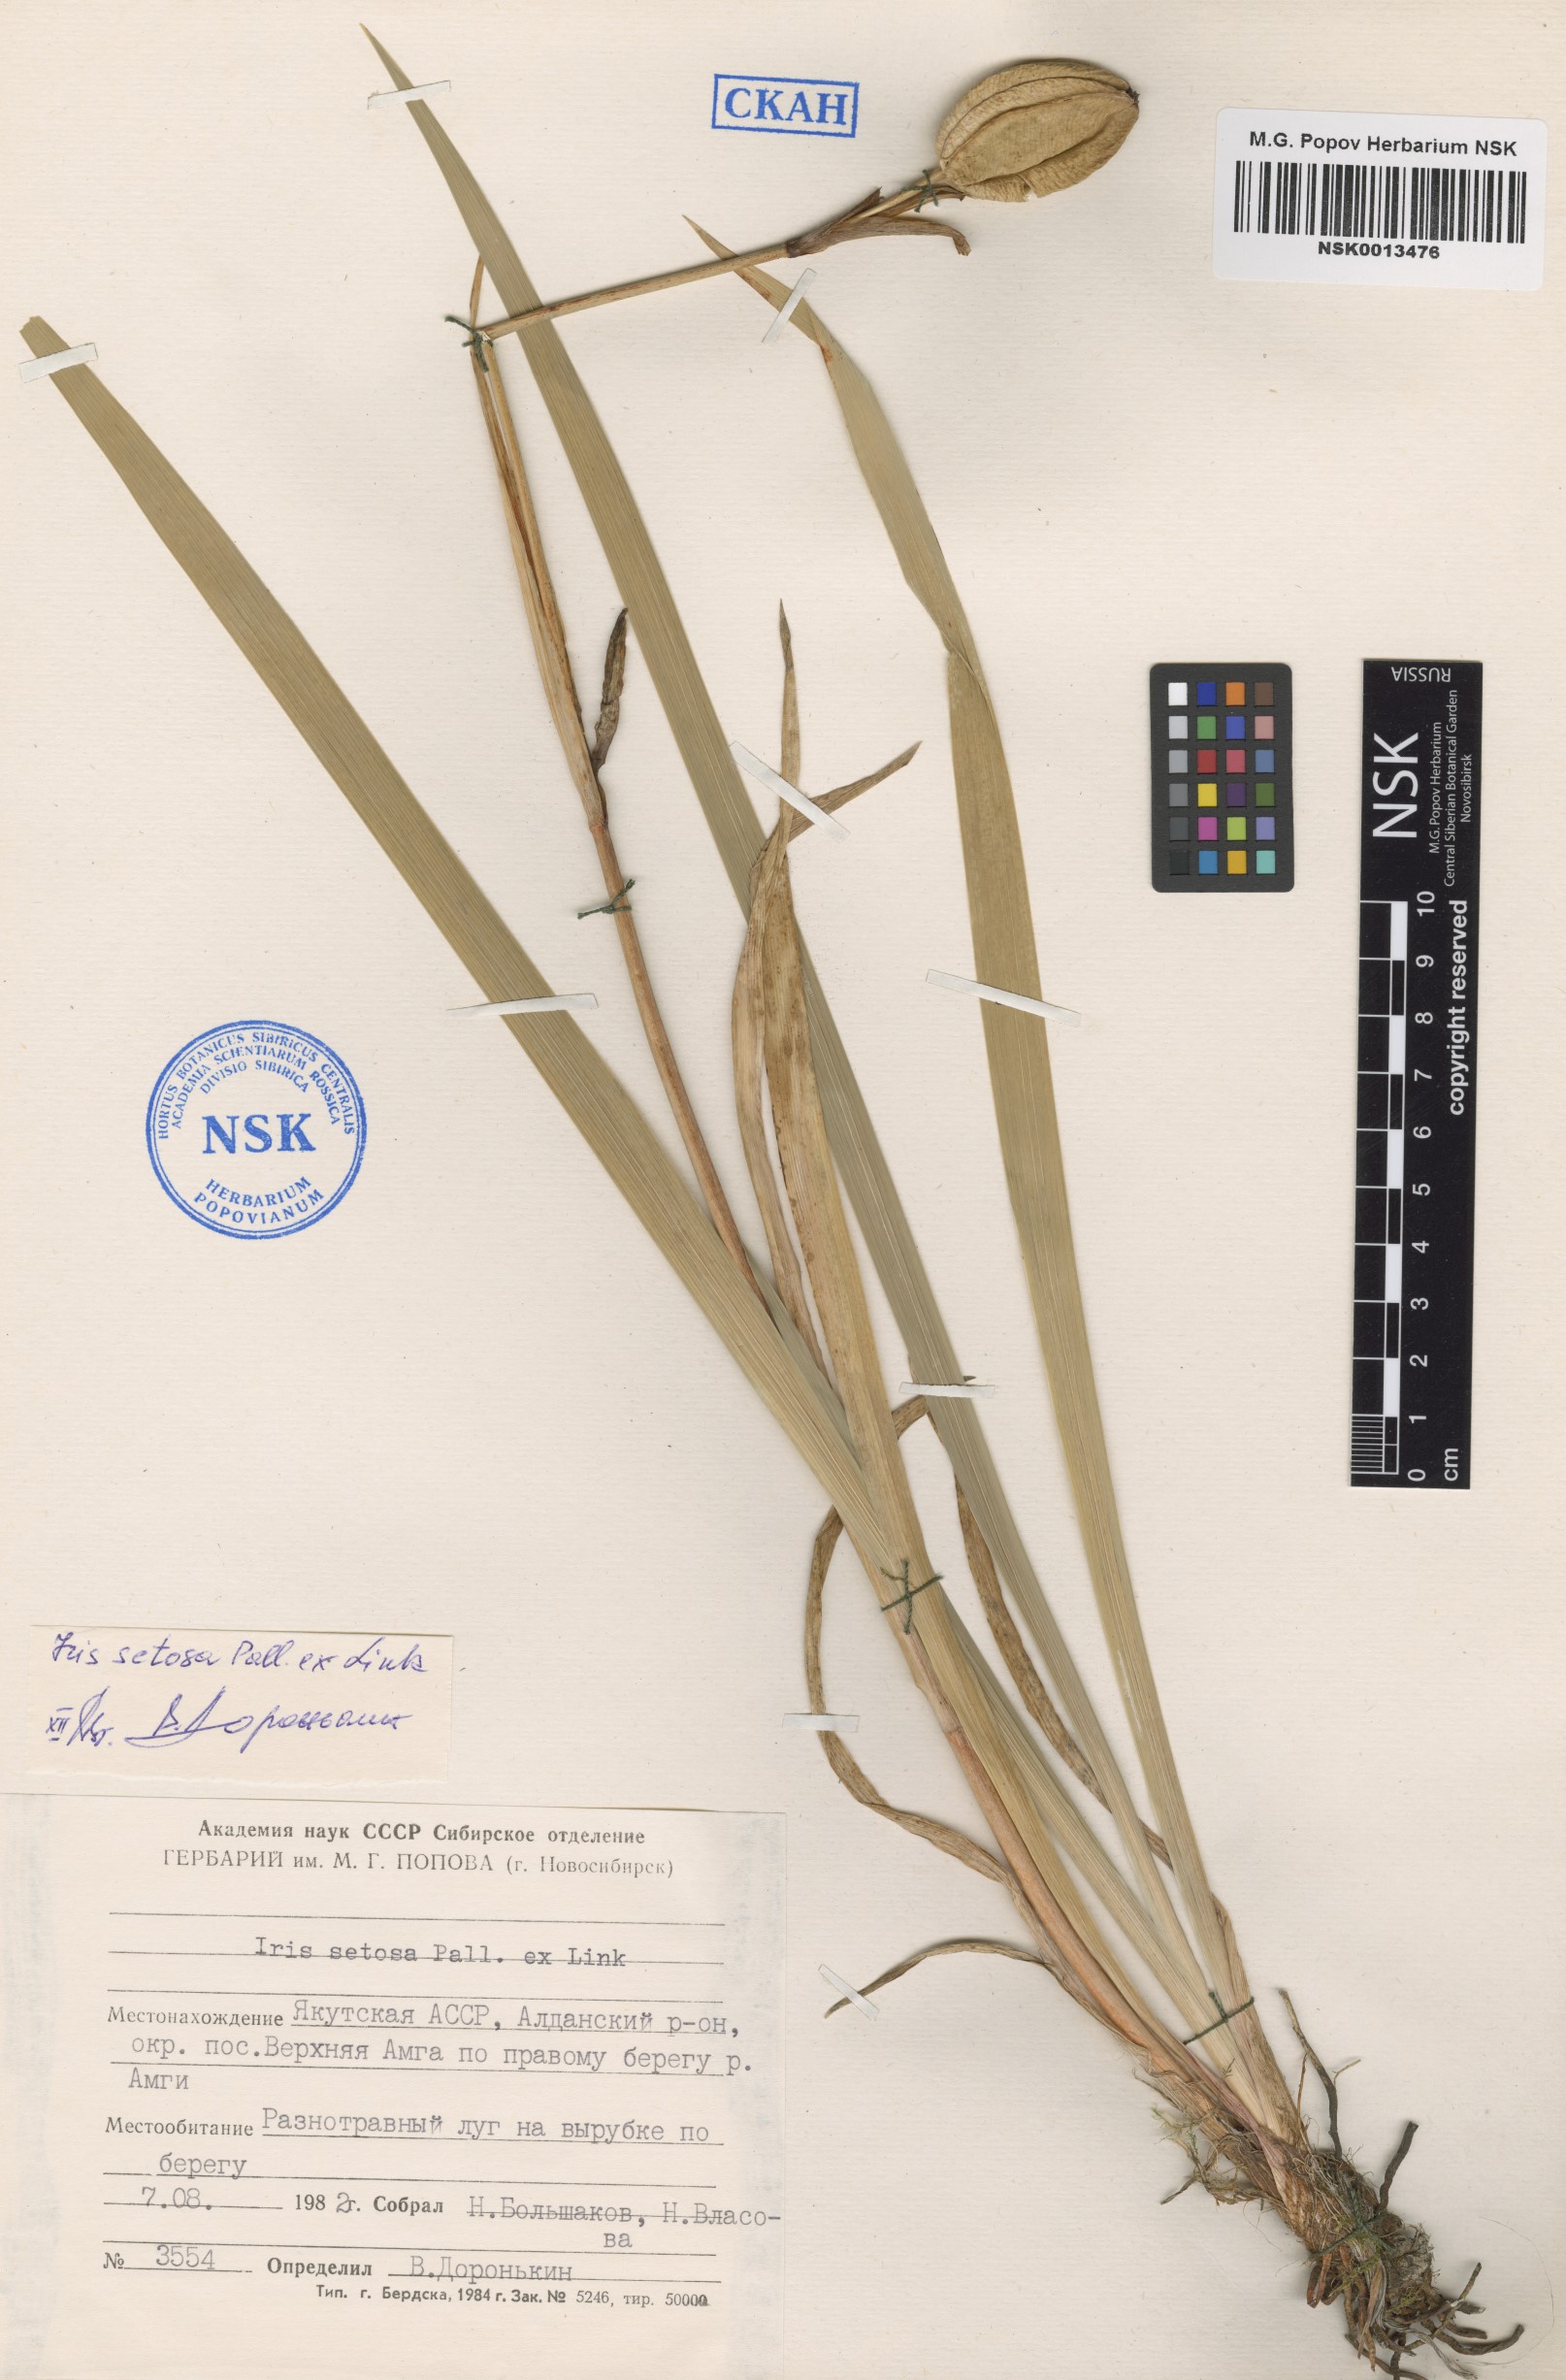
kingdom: Plantae
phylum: Tracheophyta
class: Liliopsida
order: Asparagales
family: Iridaceae
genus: Iris
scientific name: Iris setosa
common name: Arctic blue flag
